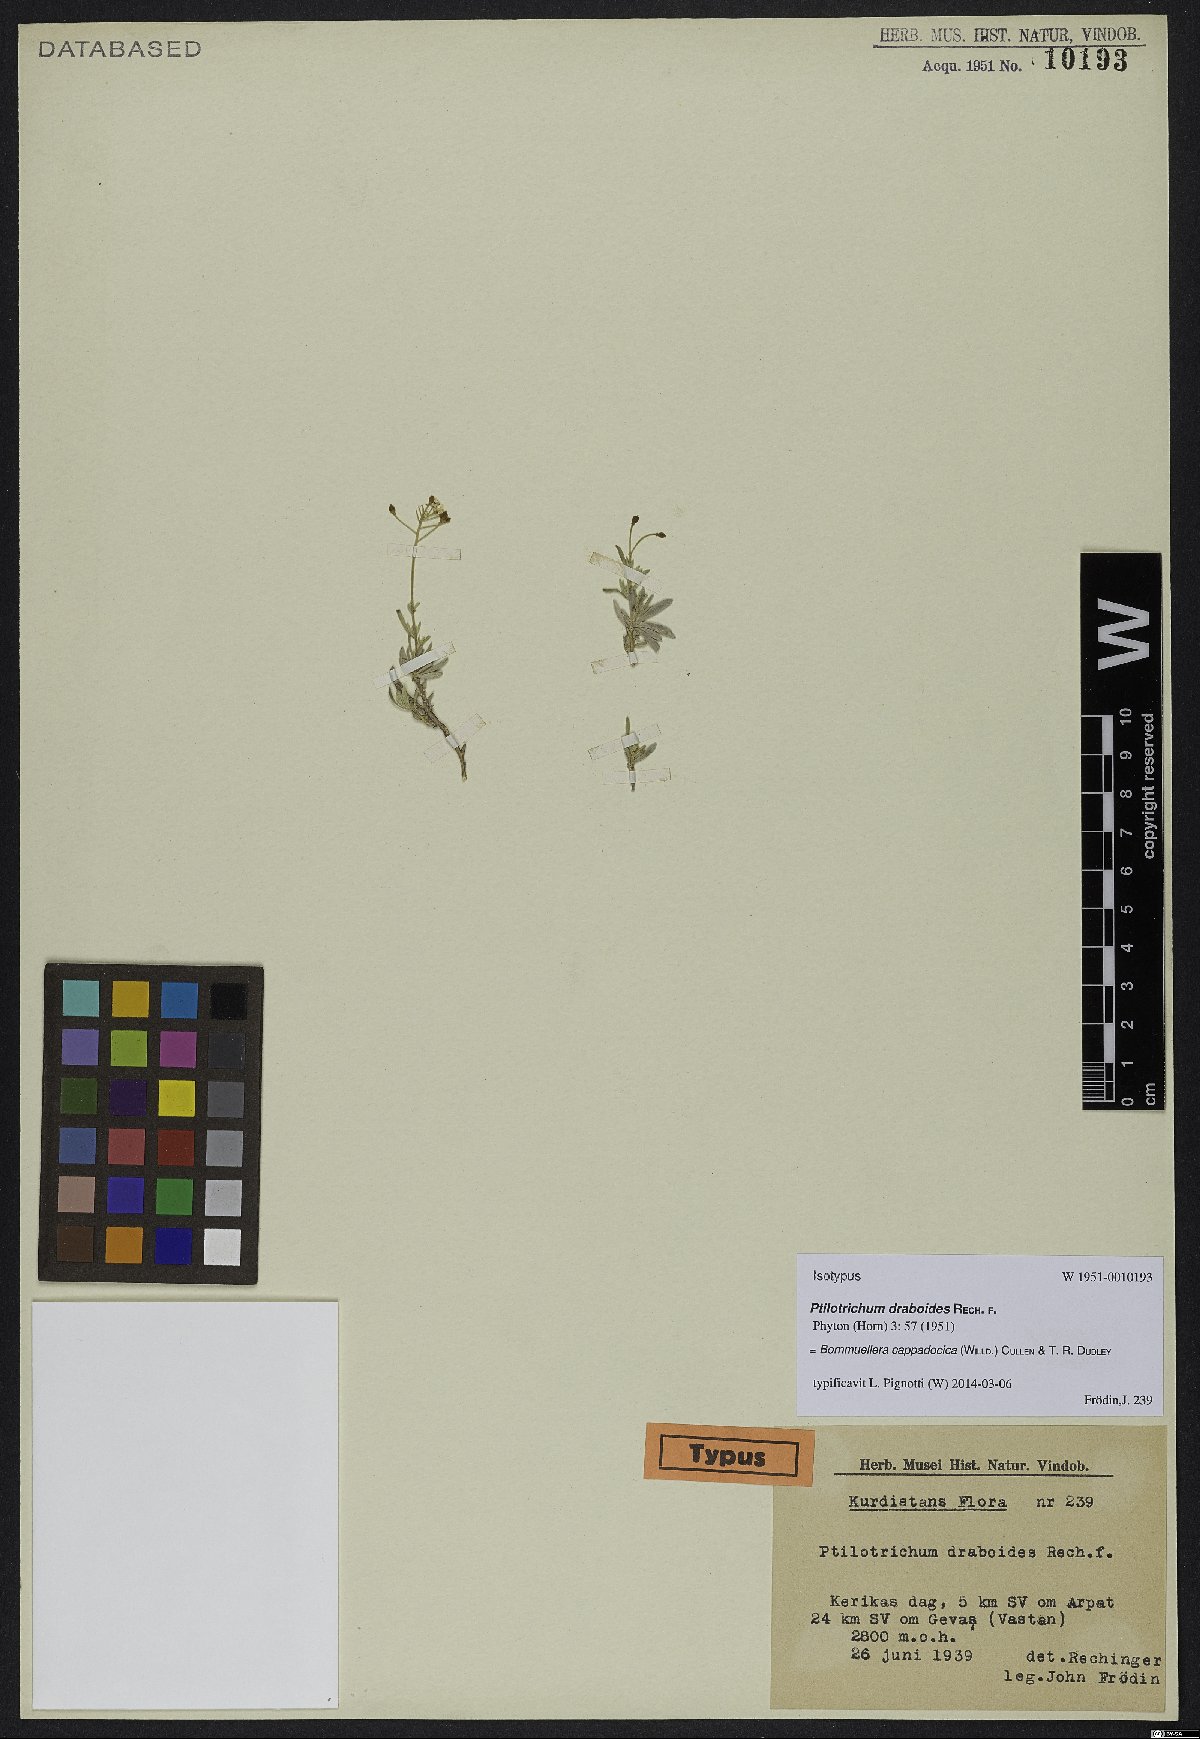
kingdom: Plantae
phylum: Tracheophyta
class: Magnoliopsida
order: Brassicales
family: Brassicaceae
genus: Bornmuellera
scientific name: Bornmuellera cappadocica
